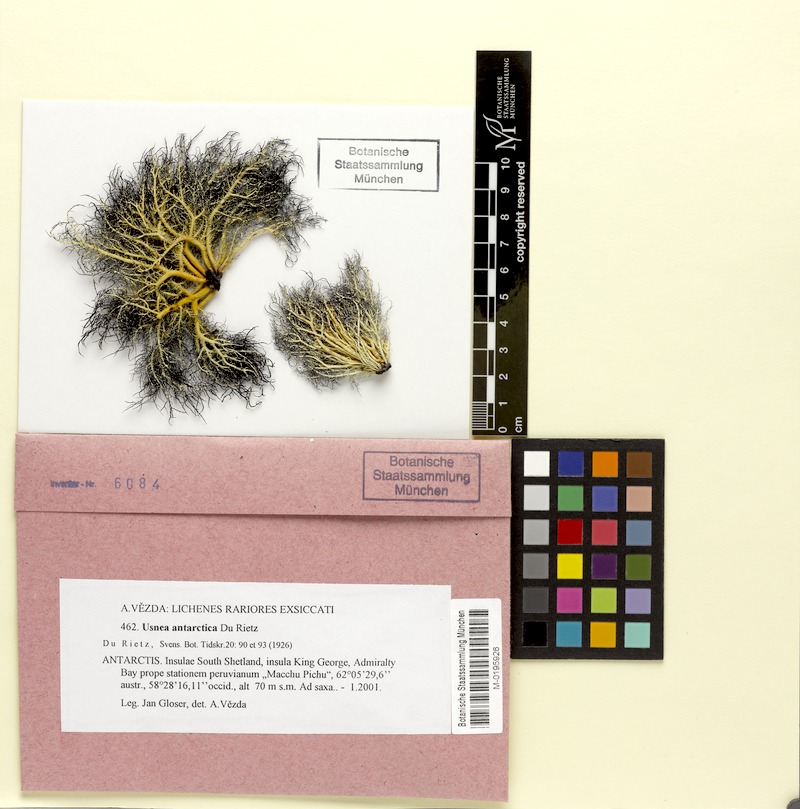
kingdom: Fungi
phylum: Ascomycota
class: Lecanoromycetes
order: Lecanorales
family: Parmeliaceae
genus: Usnea
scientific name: Usnea antarctica
